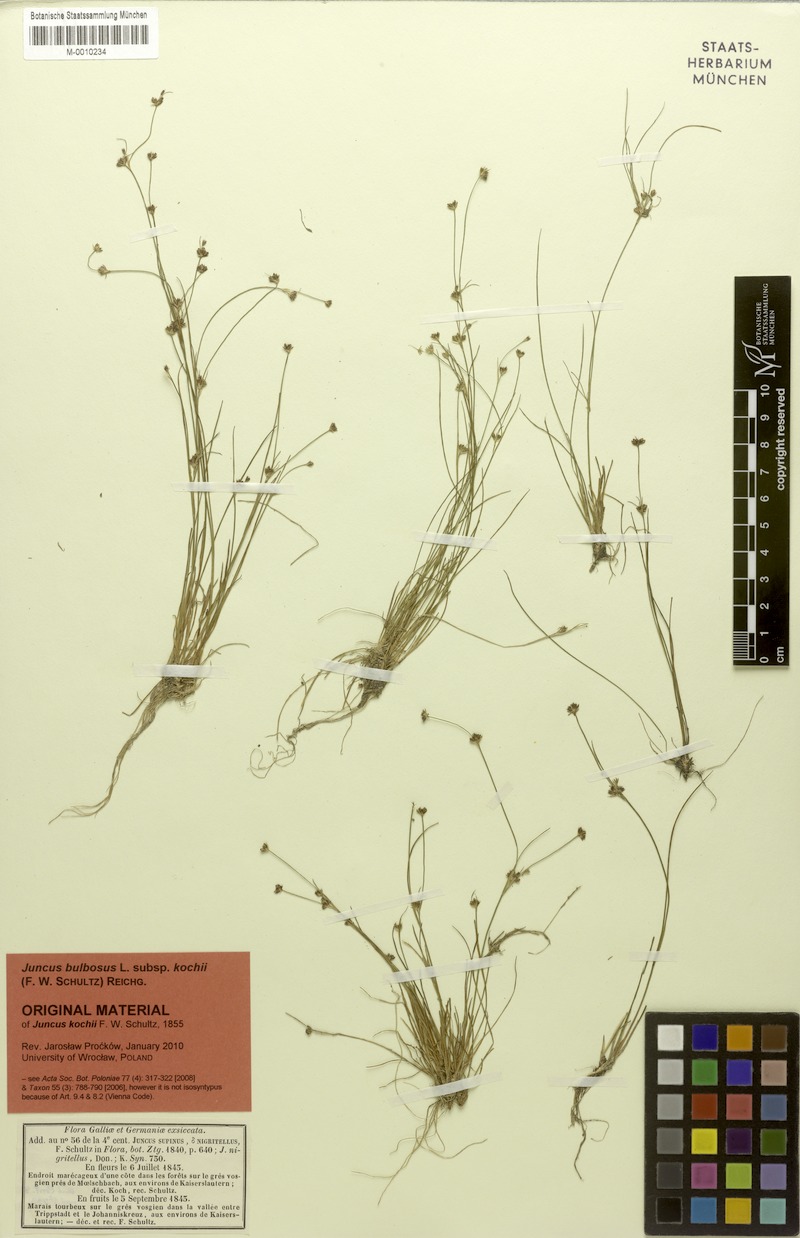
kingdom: Plantae
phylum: Tracheophyta
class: Liliopsida
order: Poales
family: Juncaceae
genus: Juncus
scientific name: Juncus bulbosus
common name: Bulbous rush
